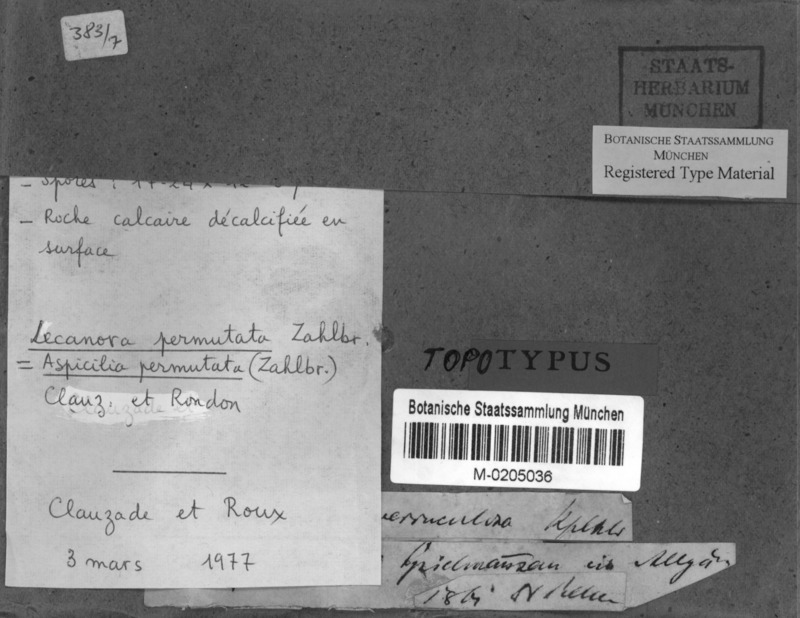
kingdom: Fungi
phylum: Ascomycota
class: Lecanoromycetes
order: Pertusariales
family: Megasporaceae
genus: Oxneriaria
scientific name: Oxneriaria verruculosa
